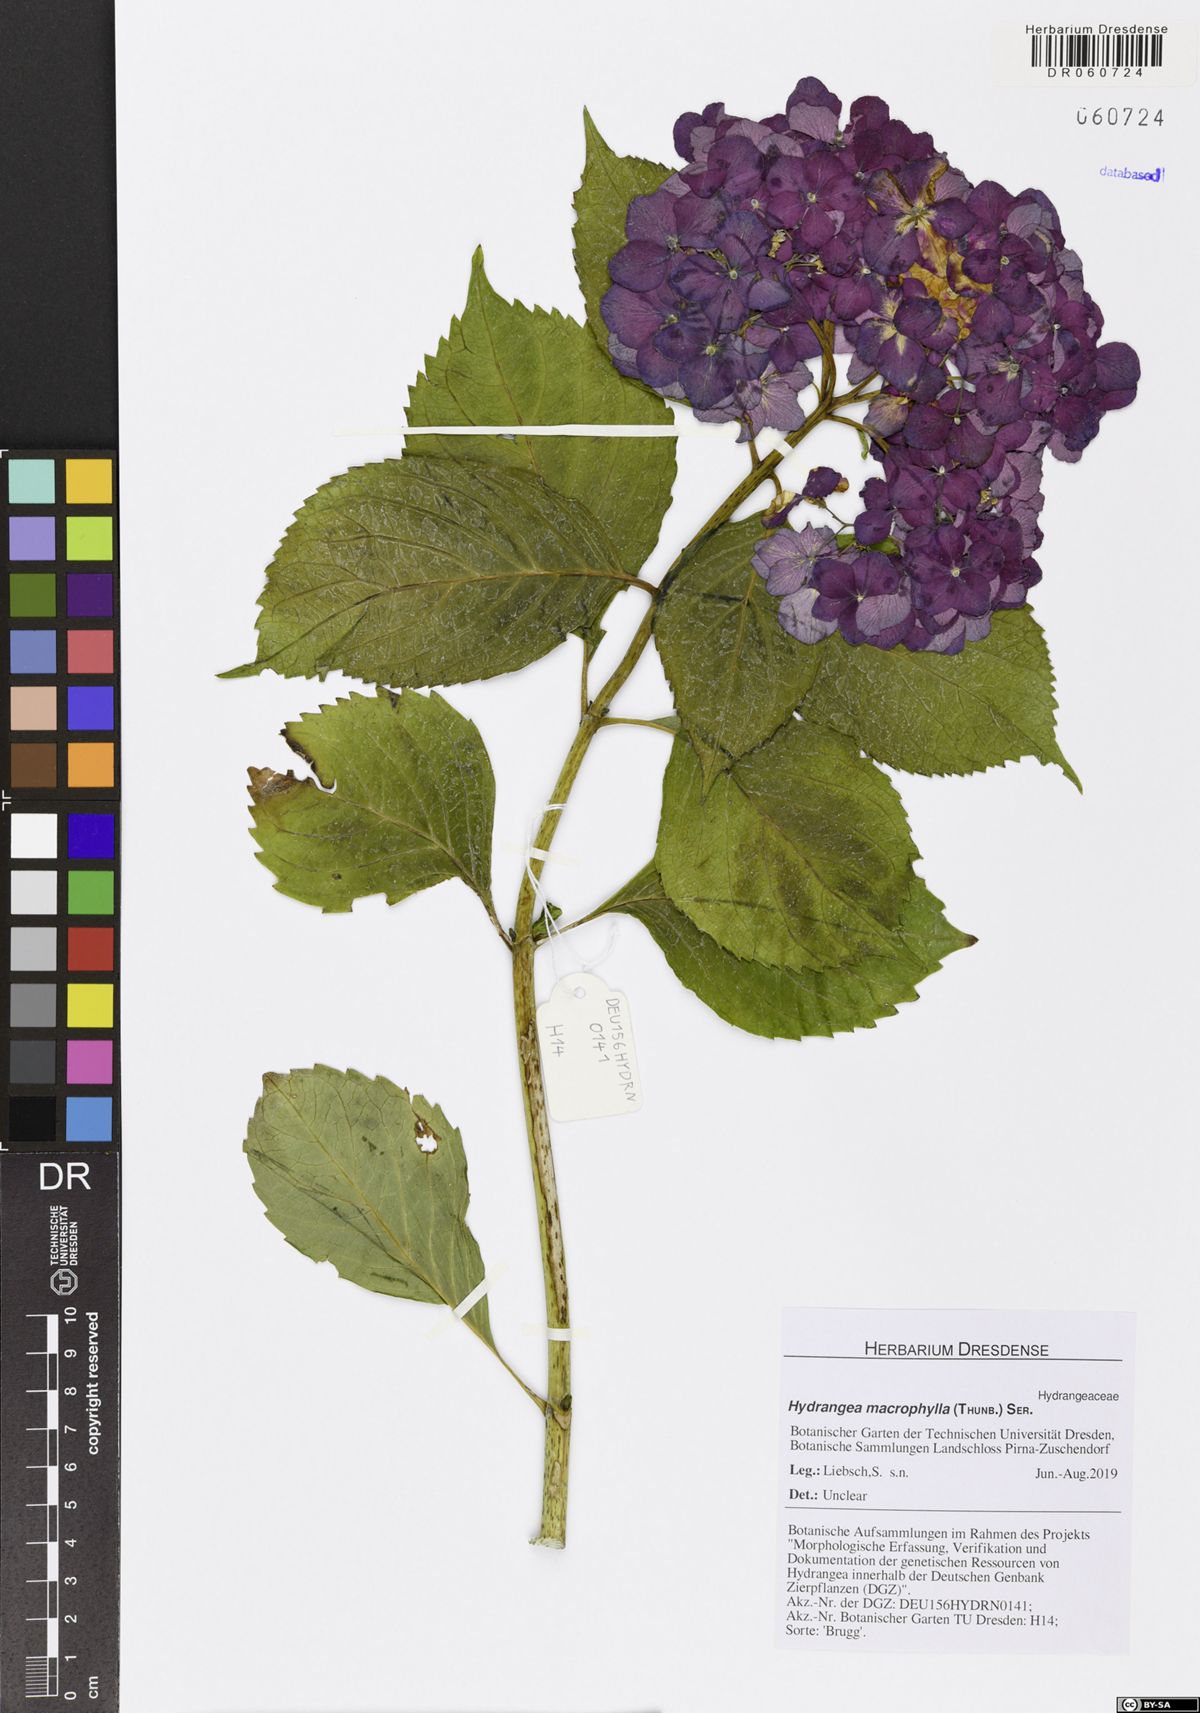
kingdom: Plantae
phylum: Tracheophyta
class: Magnoliopsida
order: Cornales
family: Hydrangeaceae
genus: Hydrangea
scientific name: Hydrangea macrophylla
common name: Hydrangea
